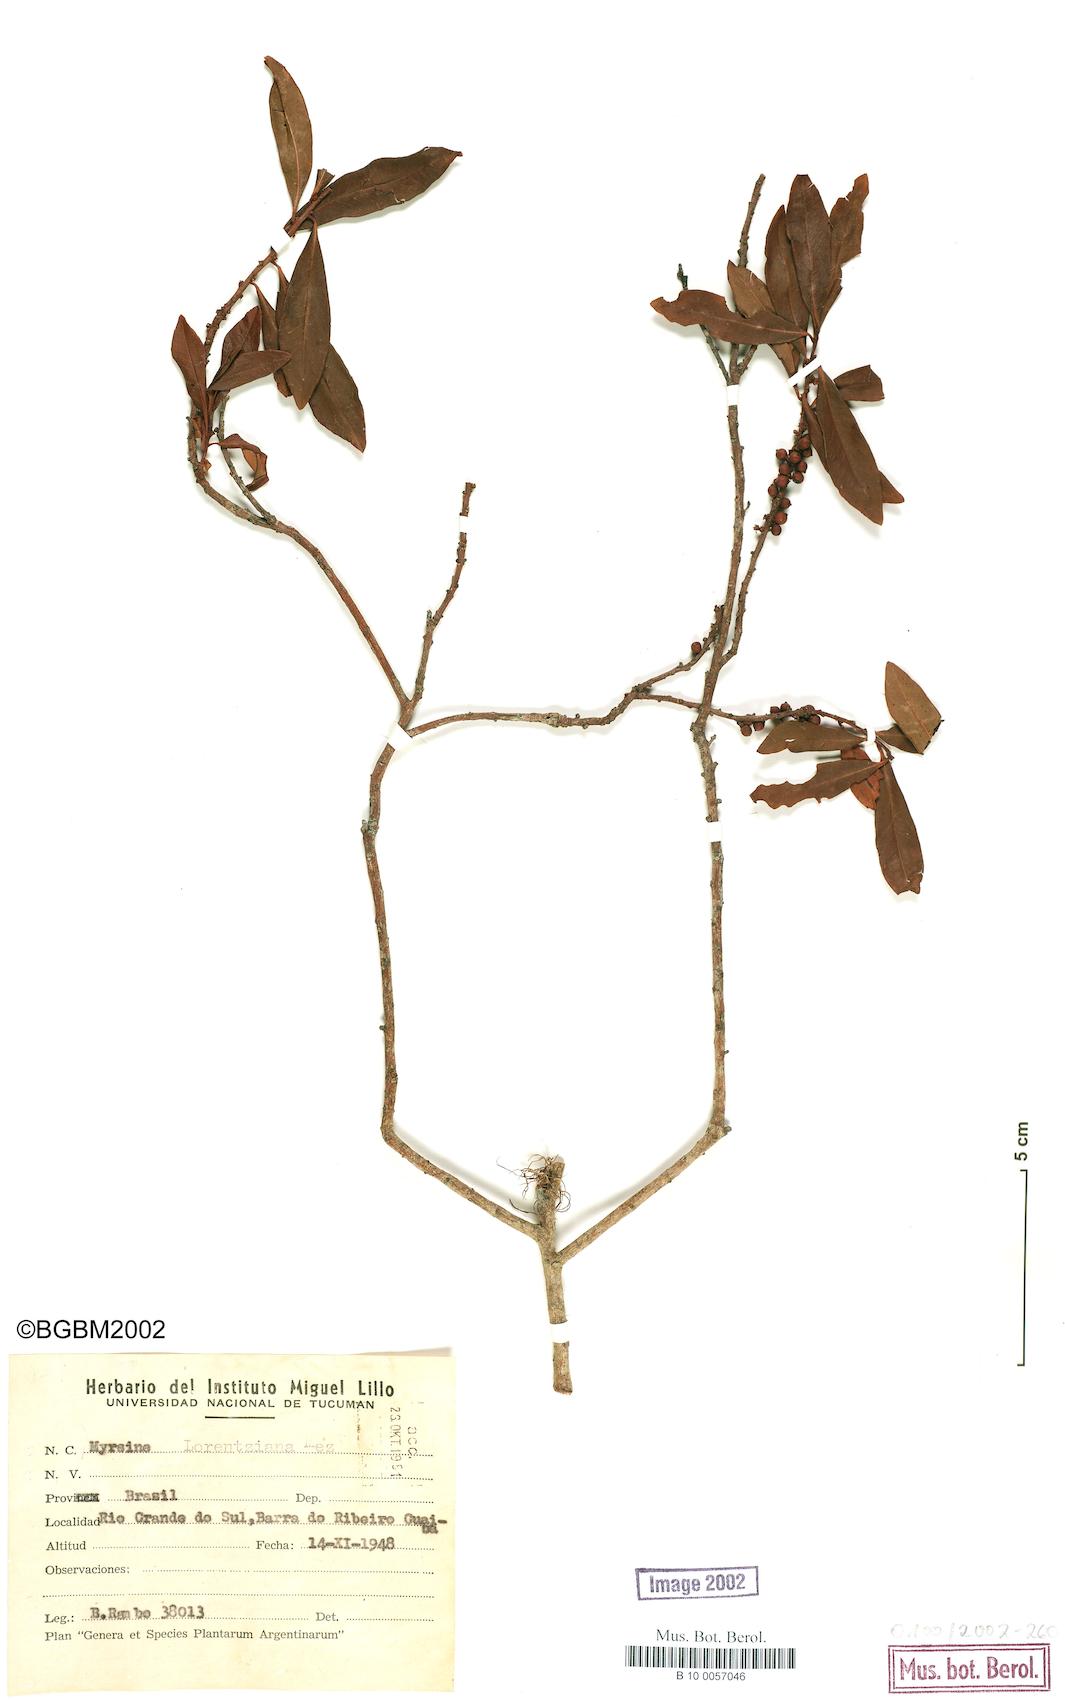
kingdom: Plantae
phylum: Tracheophyta
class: Magnoliopsida
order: Ericales
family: Primulaceae
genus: Myrsine
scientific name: Myrsine lorentziana
